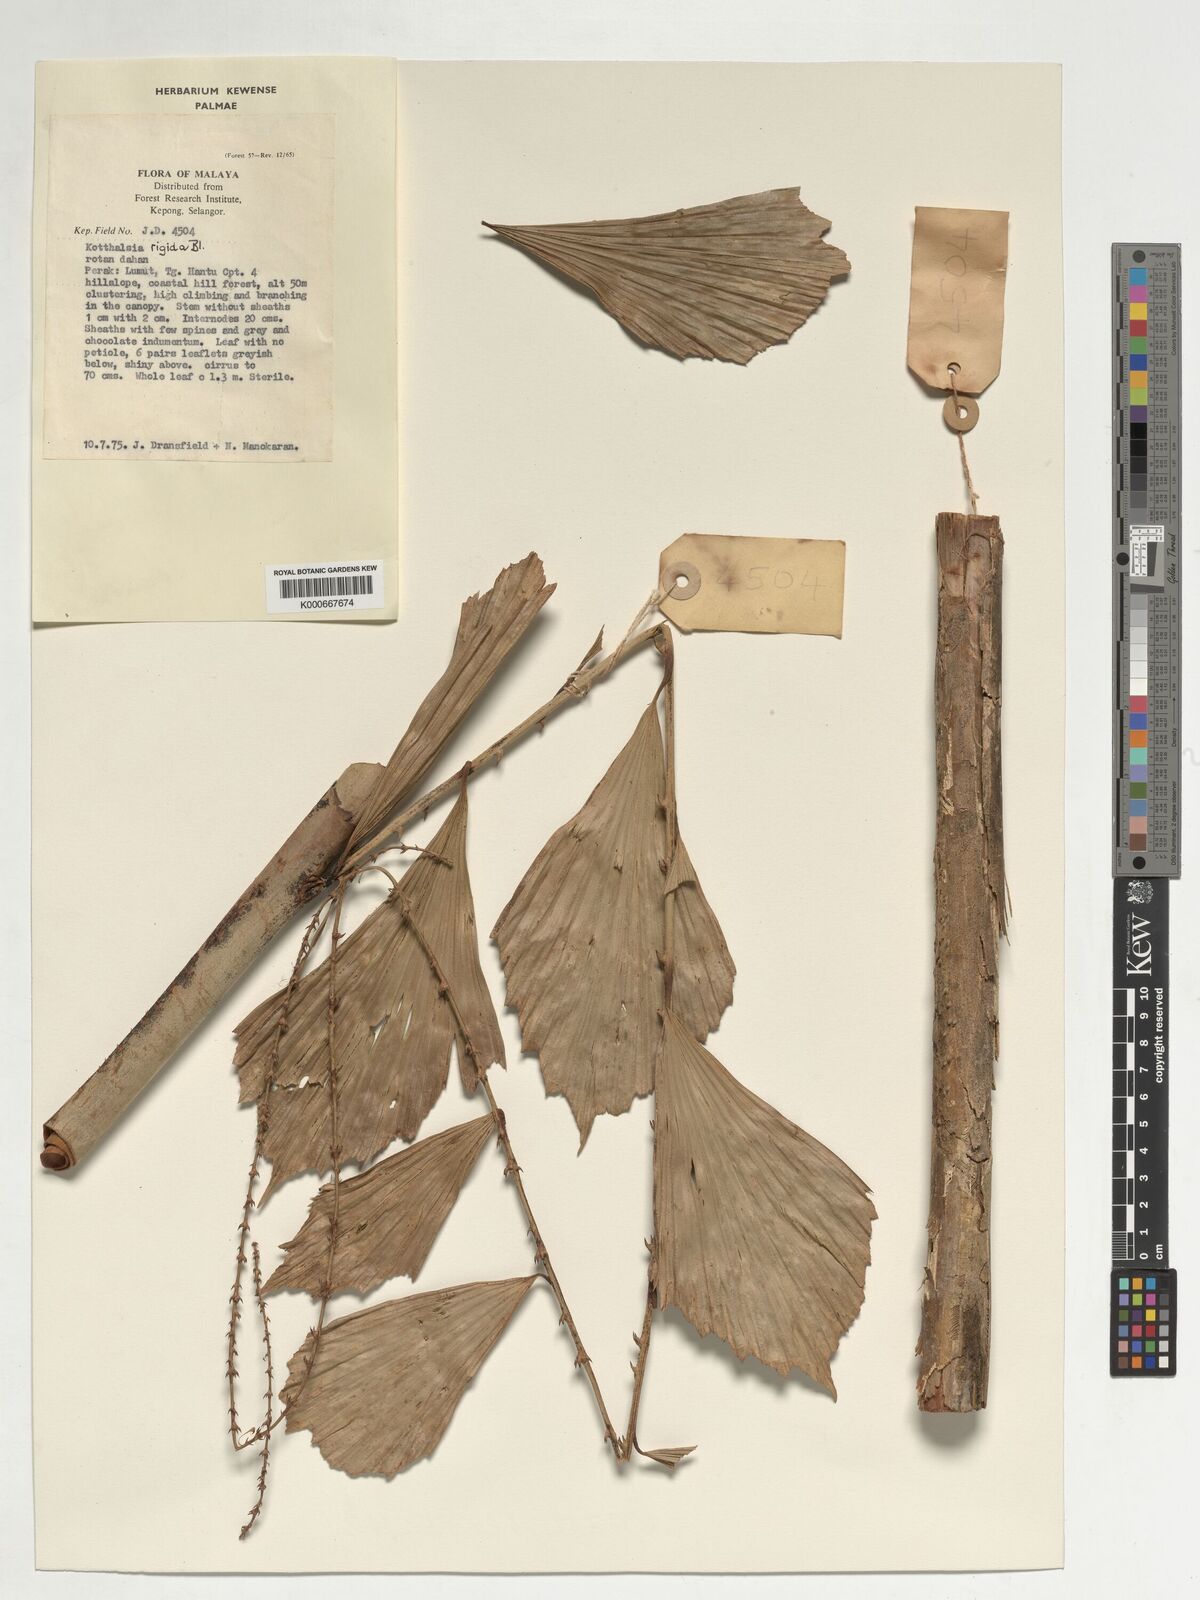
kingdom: Plantae
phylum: Tracheophyta
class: Liliopsida
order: Arecales
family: Arecaceae
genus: Korthalsia
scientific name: Korthalsia rigida
